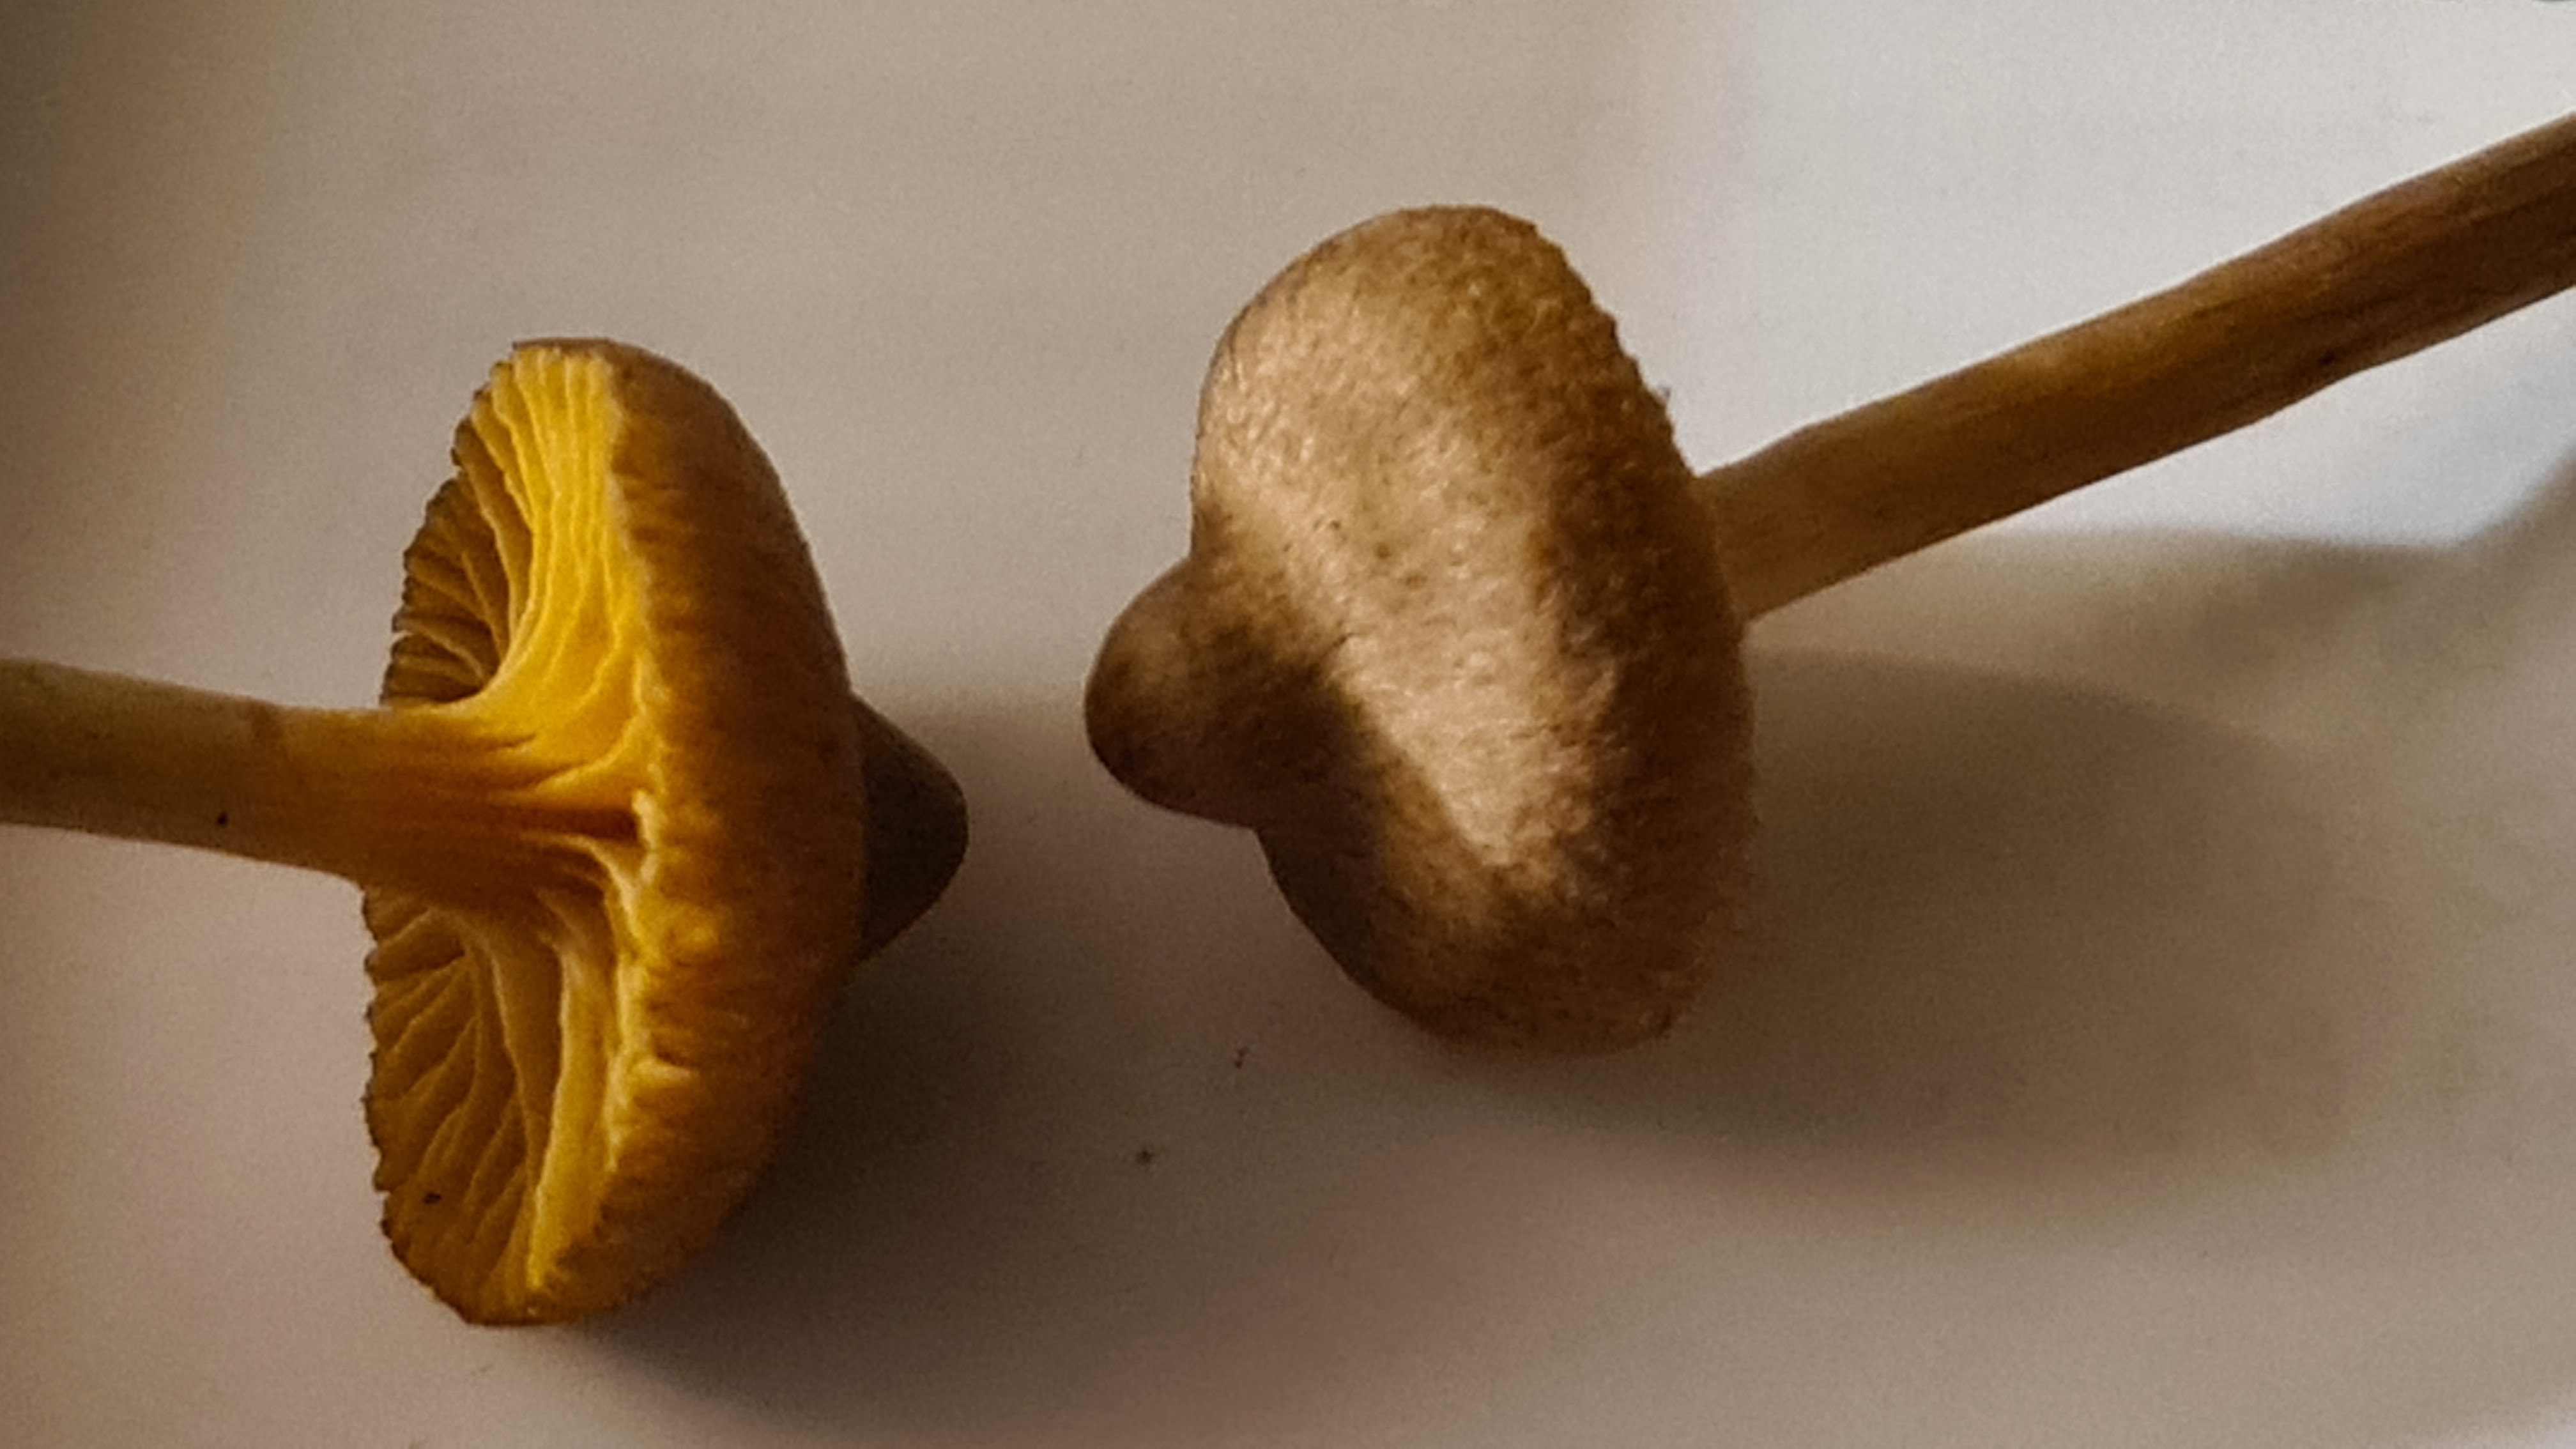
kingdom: Fungi
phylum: Basidiomycota
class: Agaricomycetes
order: Agaricales
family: Cortinariaceae
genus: Cortinarius
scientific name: Cortinarius
